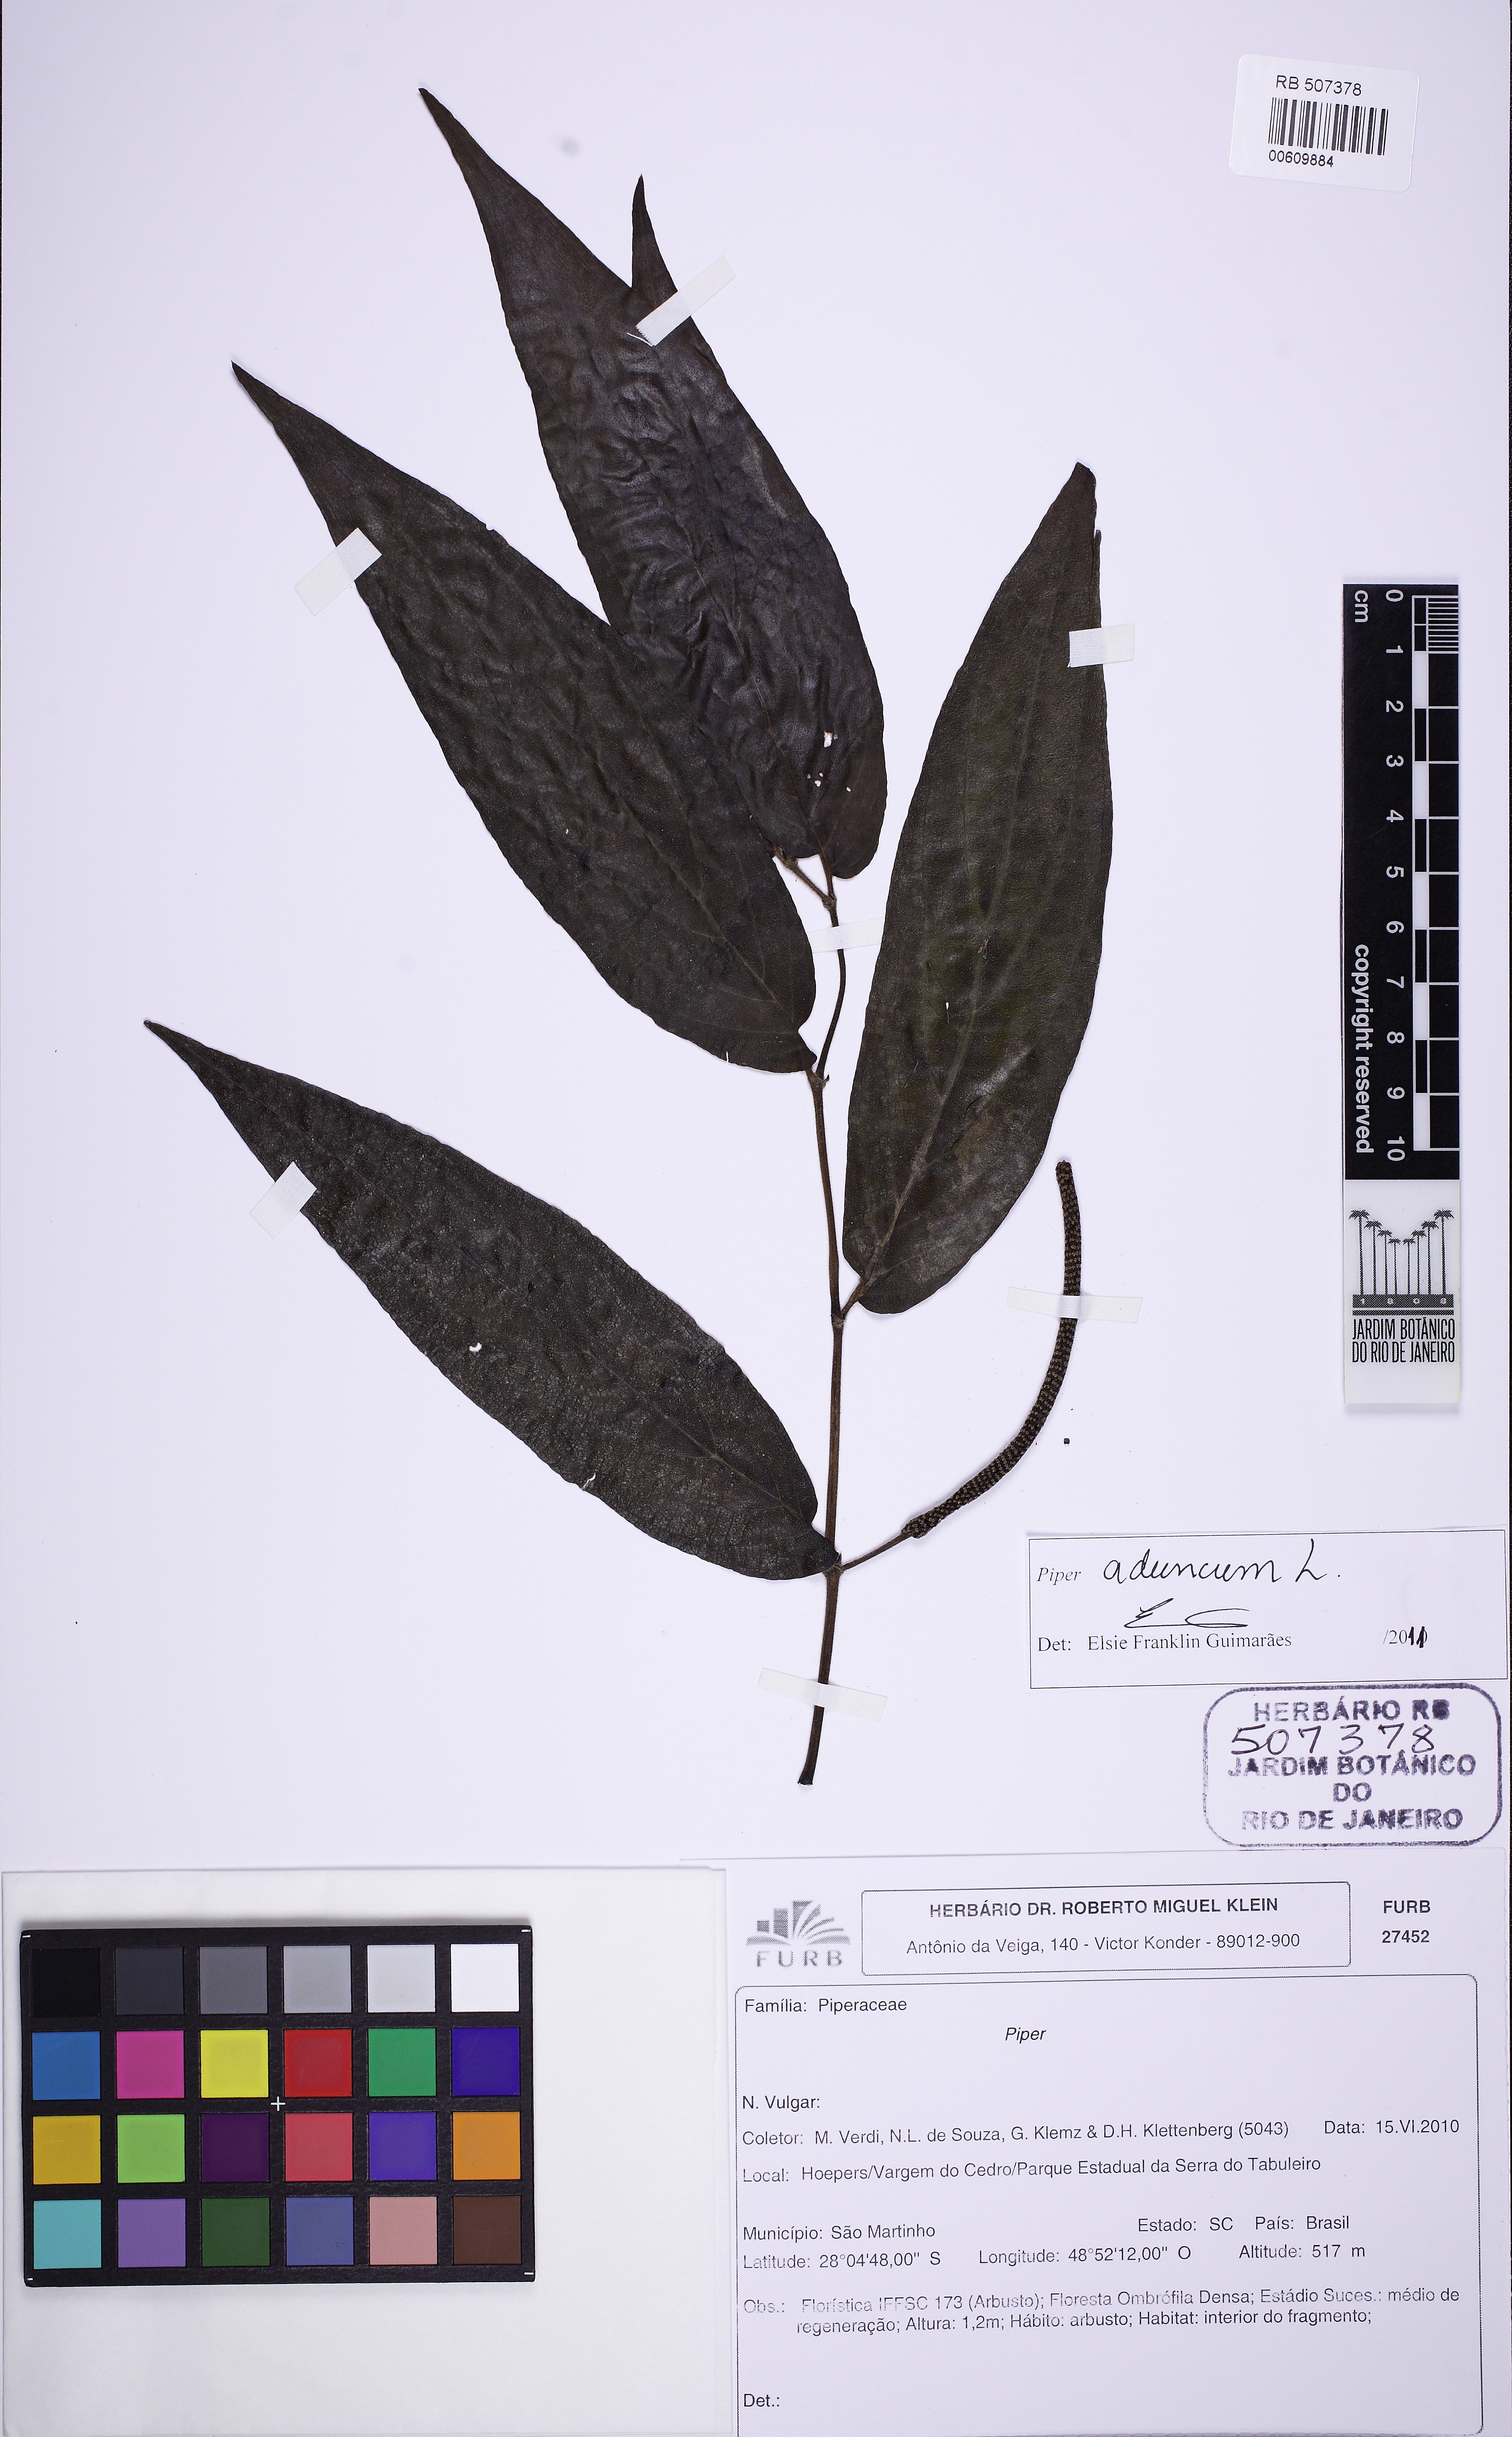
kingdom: Plantae
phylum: Tracheophyta
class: Magnoliopsida
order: Piperales
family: Piperaceae
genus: Piper
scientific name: Piper aduncum
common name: Spiked pepper
